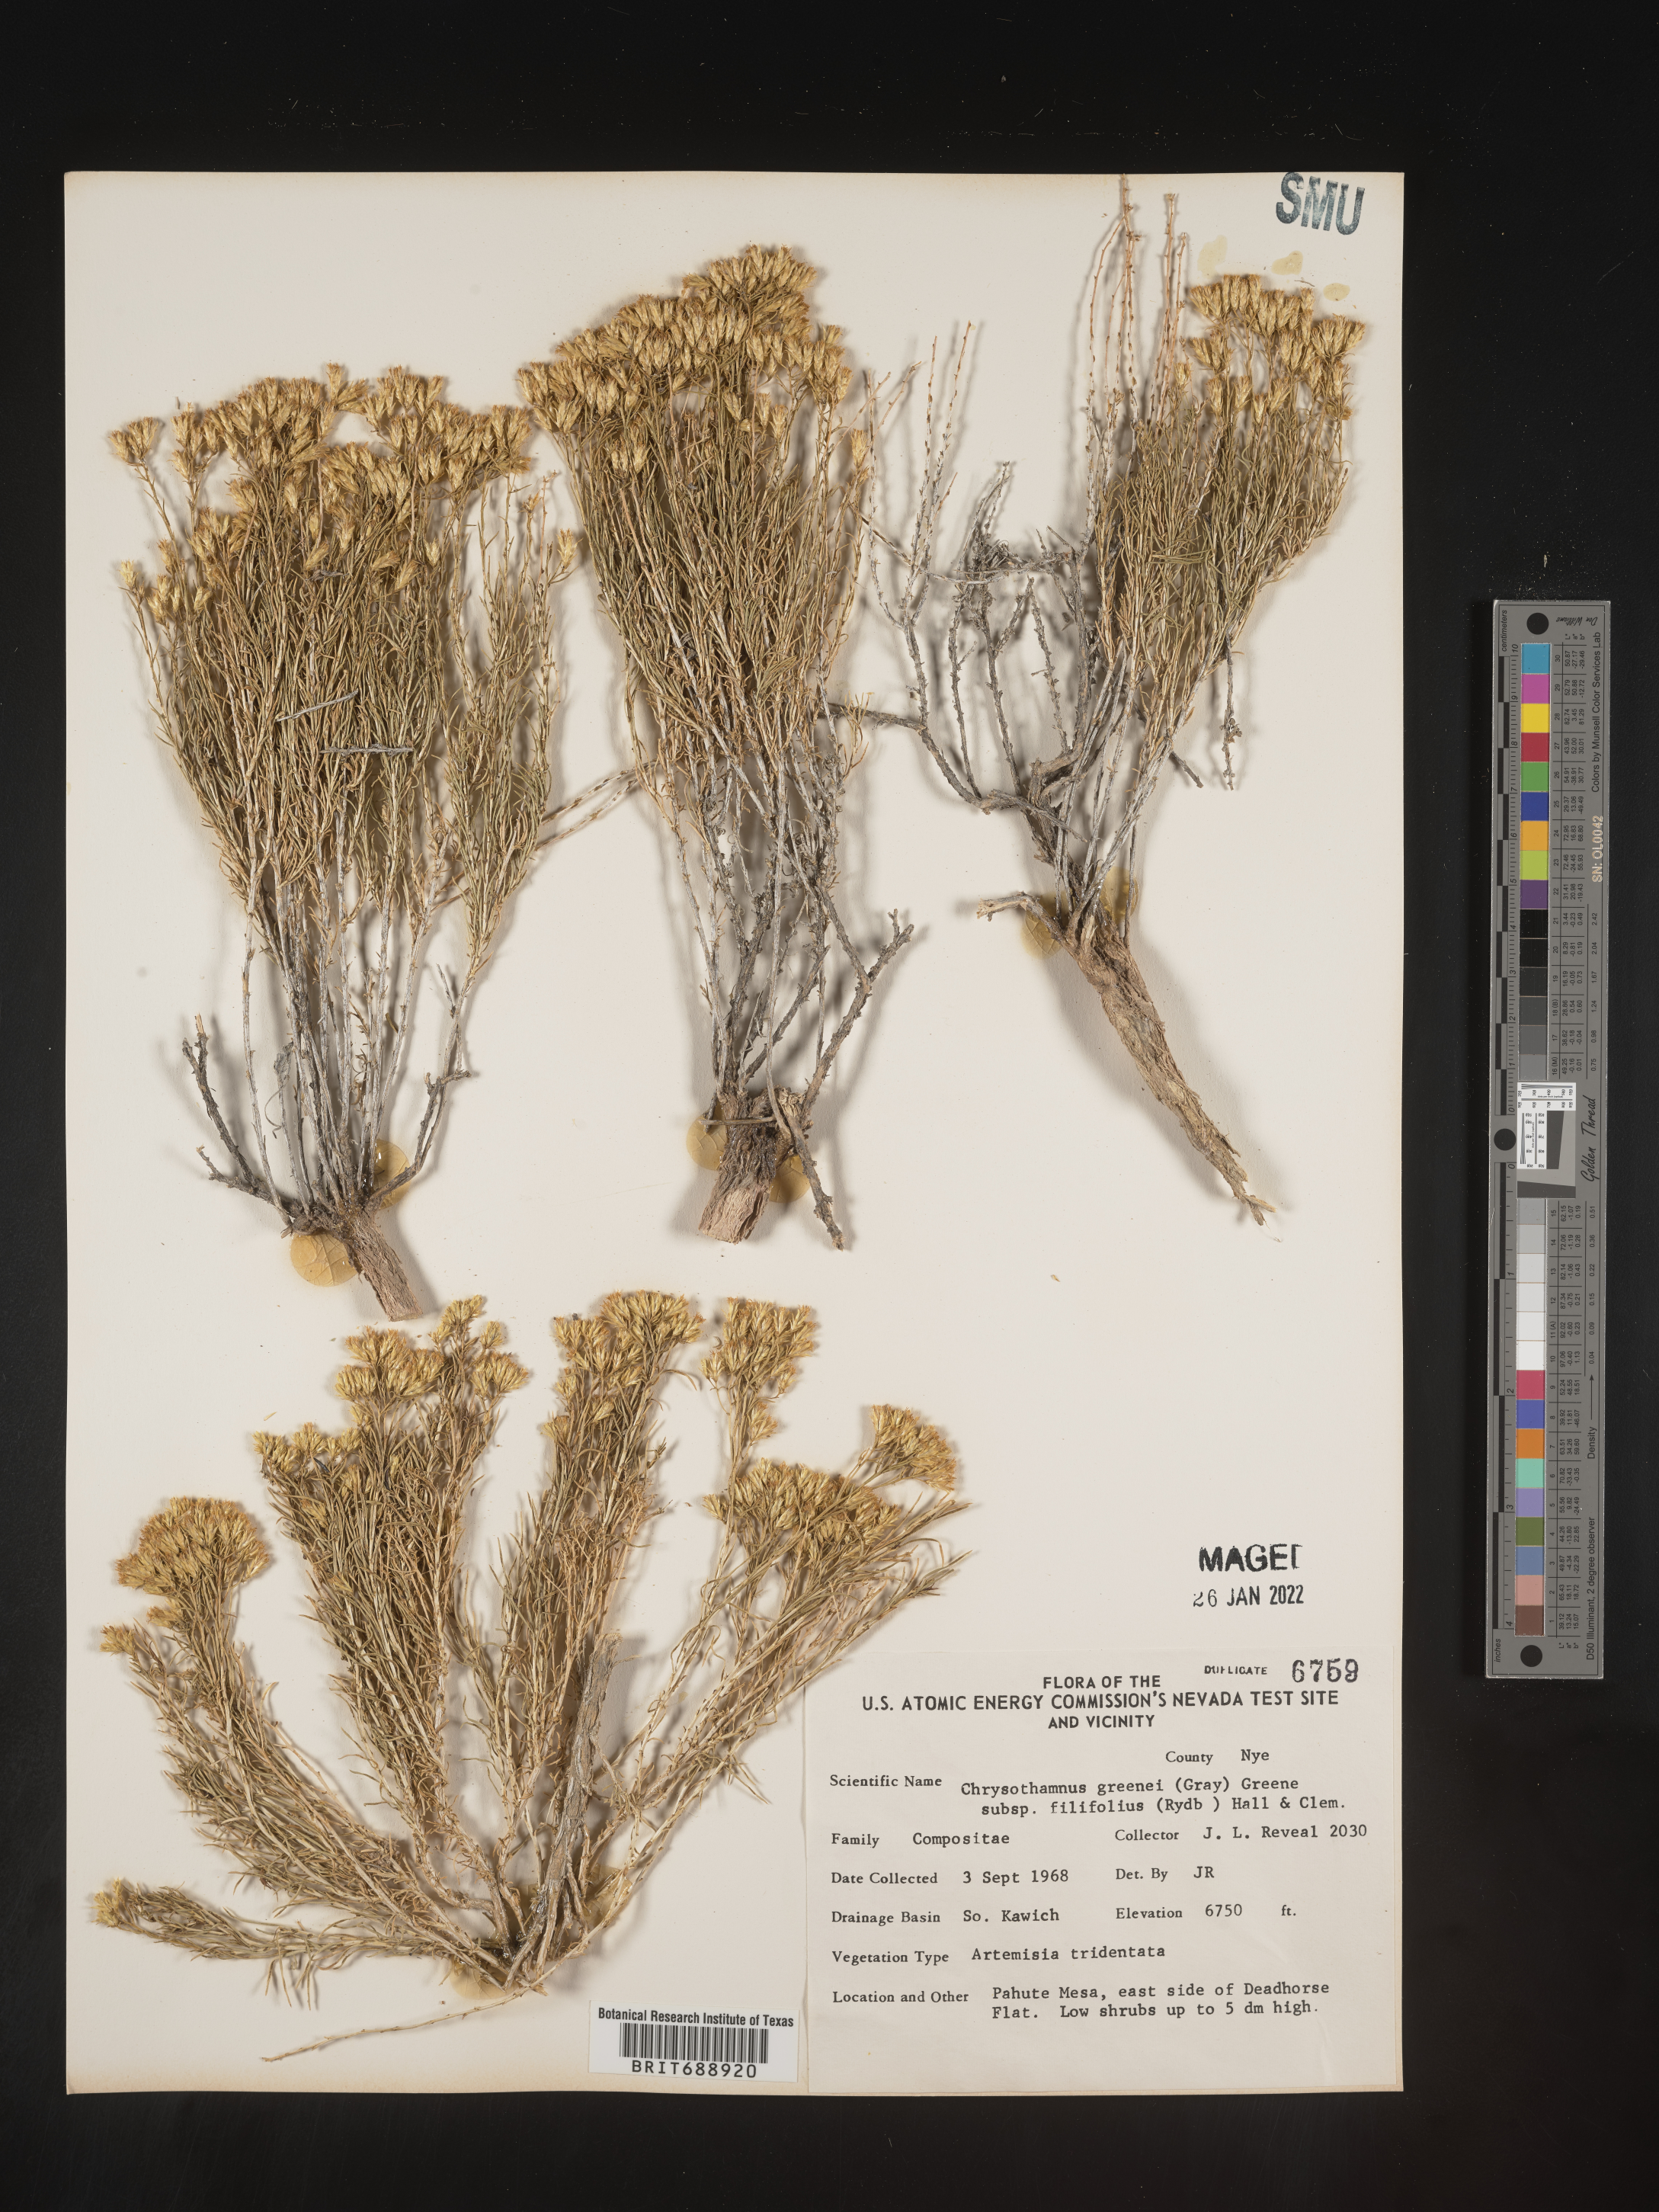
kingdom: Plantae
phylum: Tracheophyta
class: Magnoliopsida
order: Asterales
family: Asteraceae
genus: Chrysothamnus
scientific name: Chrysothamnus greenei
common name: Greene's rabbitbrush
